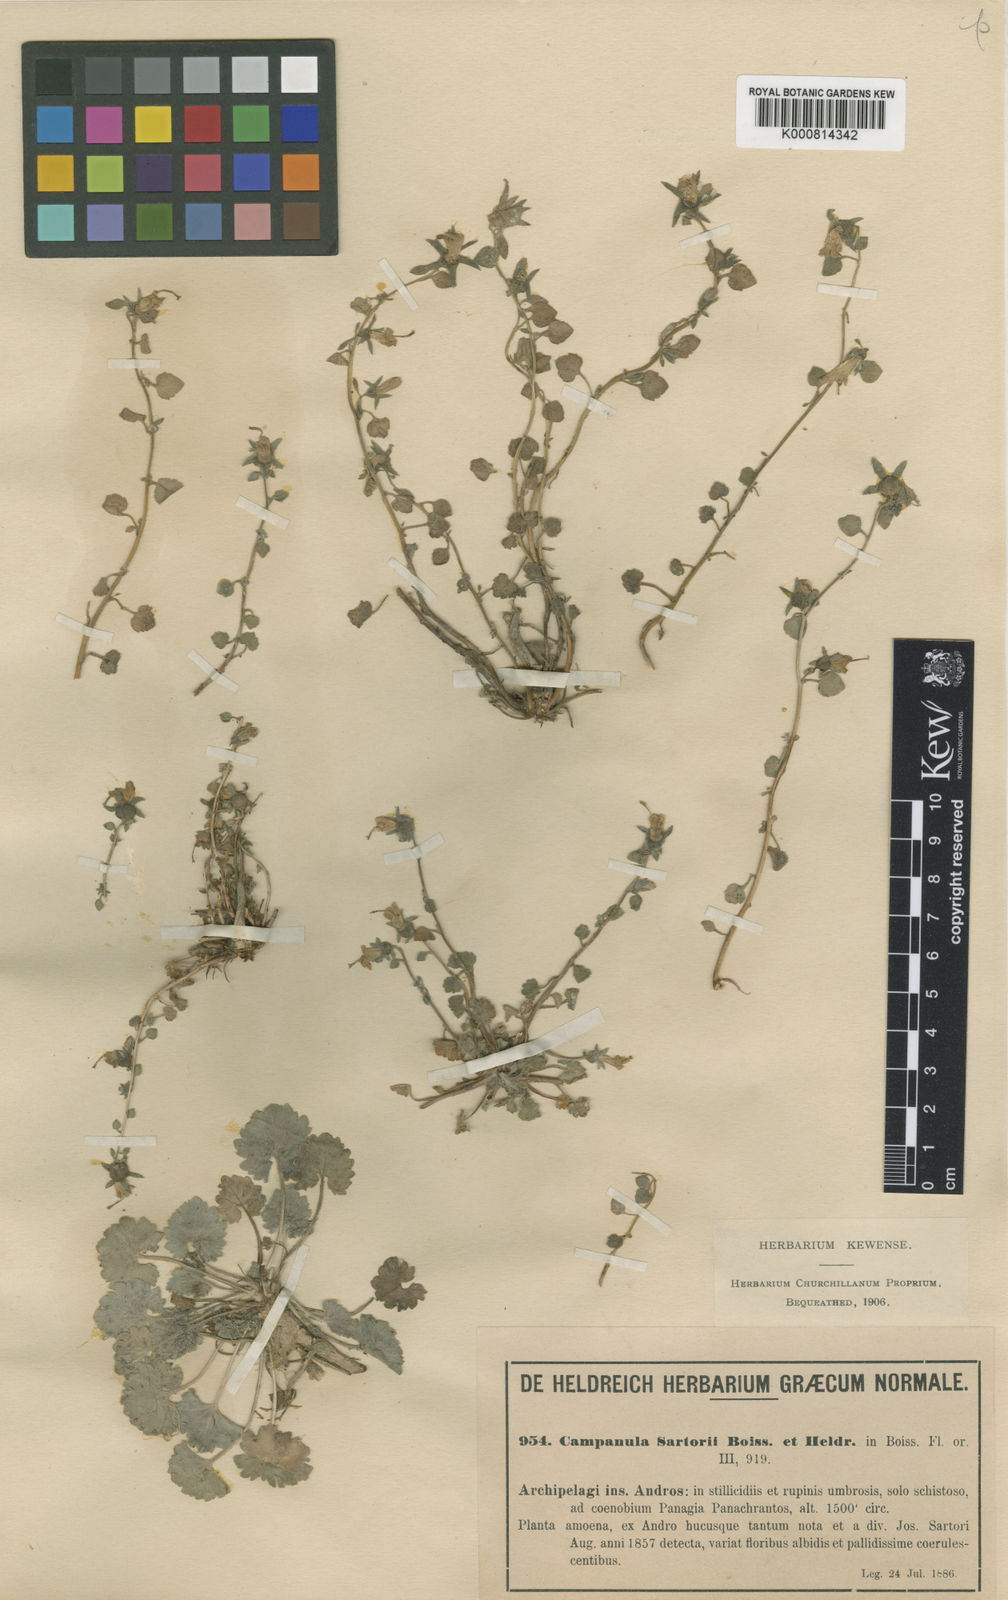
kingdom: Plantae
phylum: Tracheophyta
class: Magnoliopsida
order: Asterales
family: Campanulaceae
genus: Campanula
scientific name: Campanula sartorii
